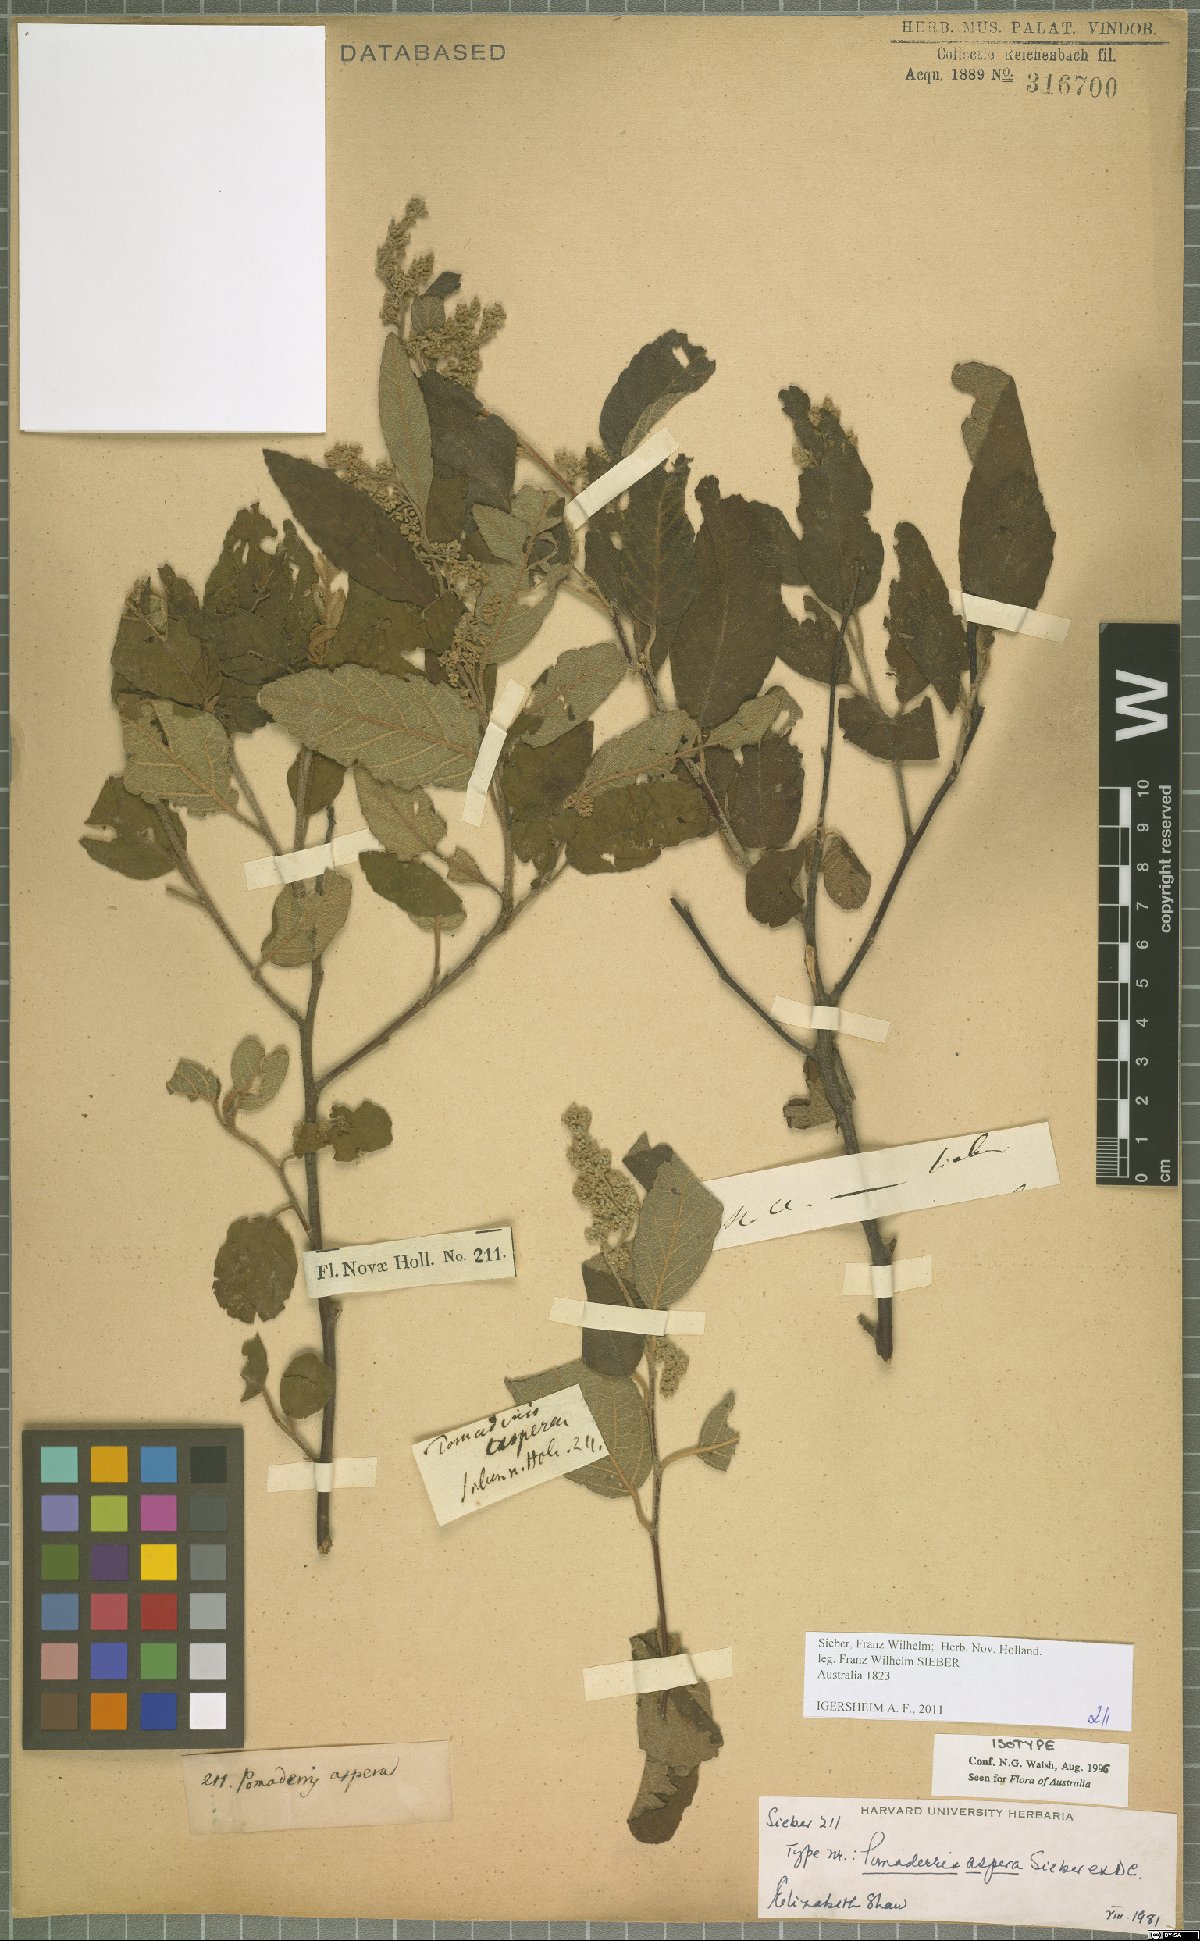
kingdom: Plantae
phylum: Tracheophyta
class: Magnoliopsida
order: Rosales
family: Rhamnaceae
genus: Pomaderris
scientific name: Pomaderris aspera
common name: Hazel pomaderris
